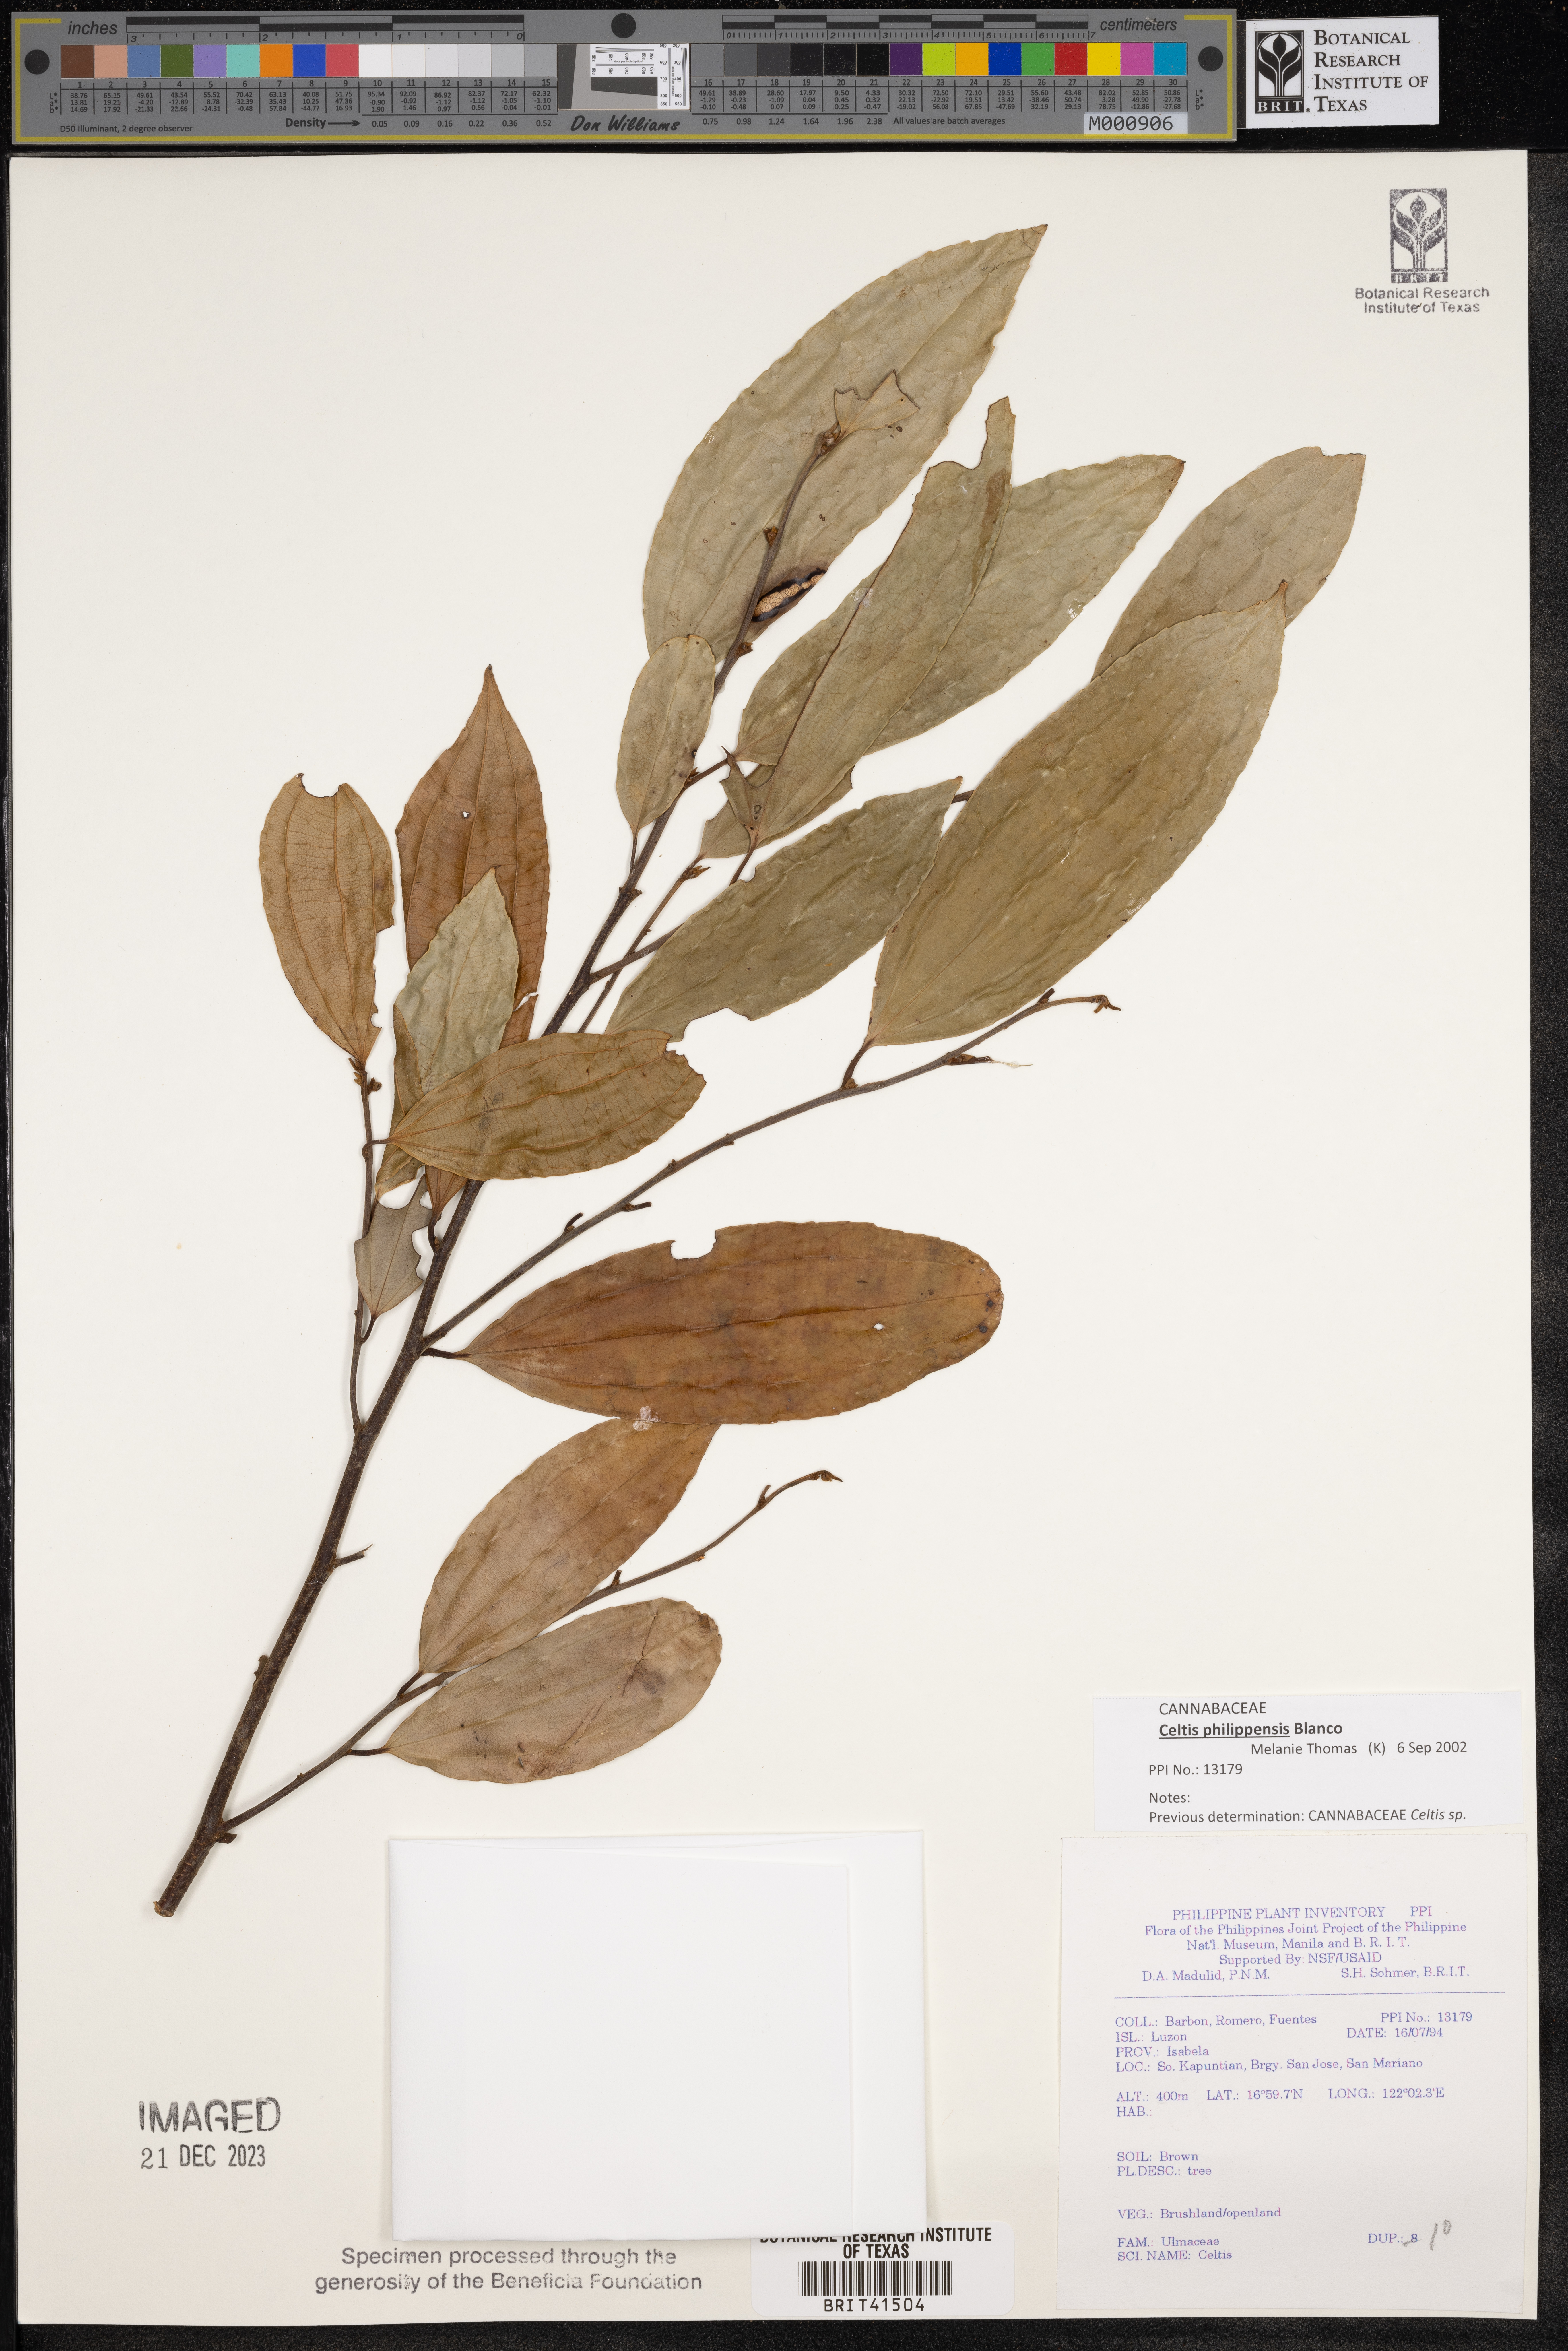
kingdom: Plantae
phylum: Tracheophyta
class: Magnoliopsida
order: Rosales
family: Cannabaceae
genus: Celtis
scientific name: Celtis
